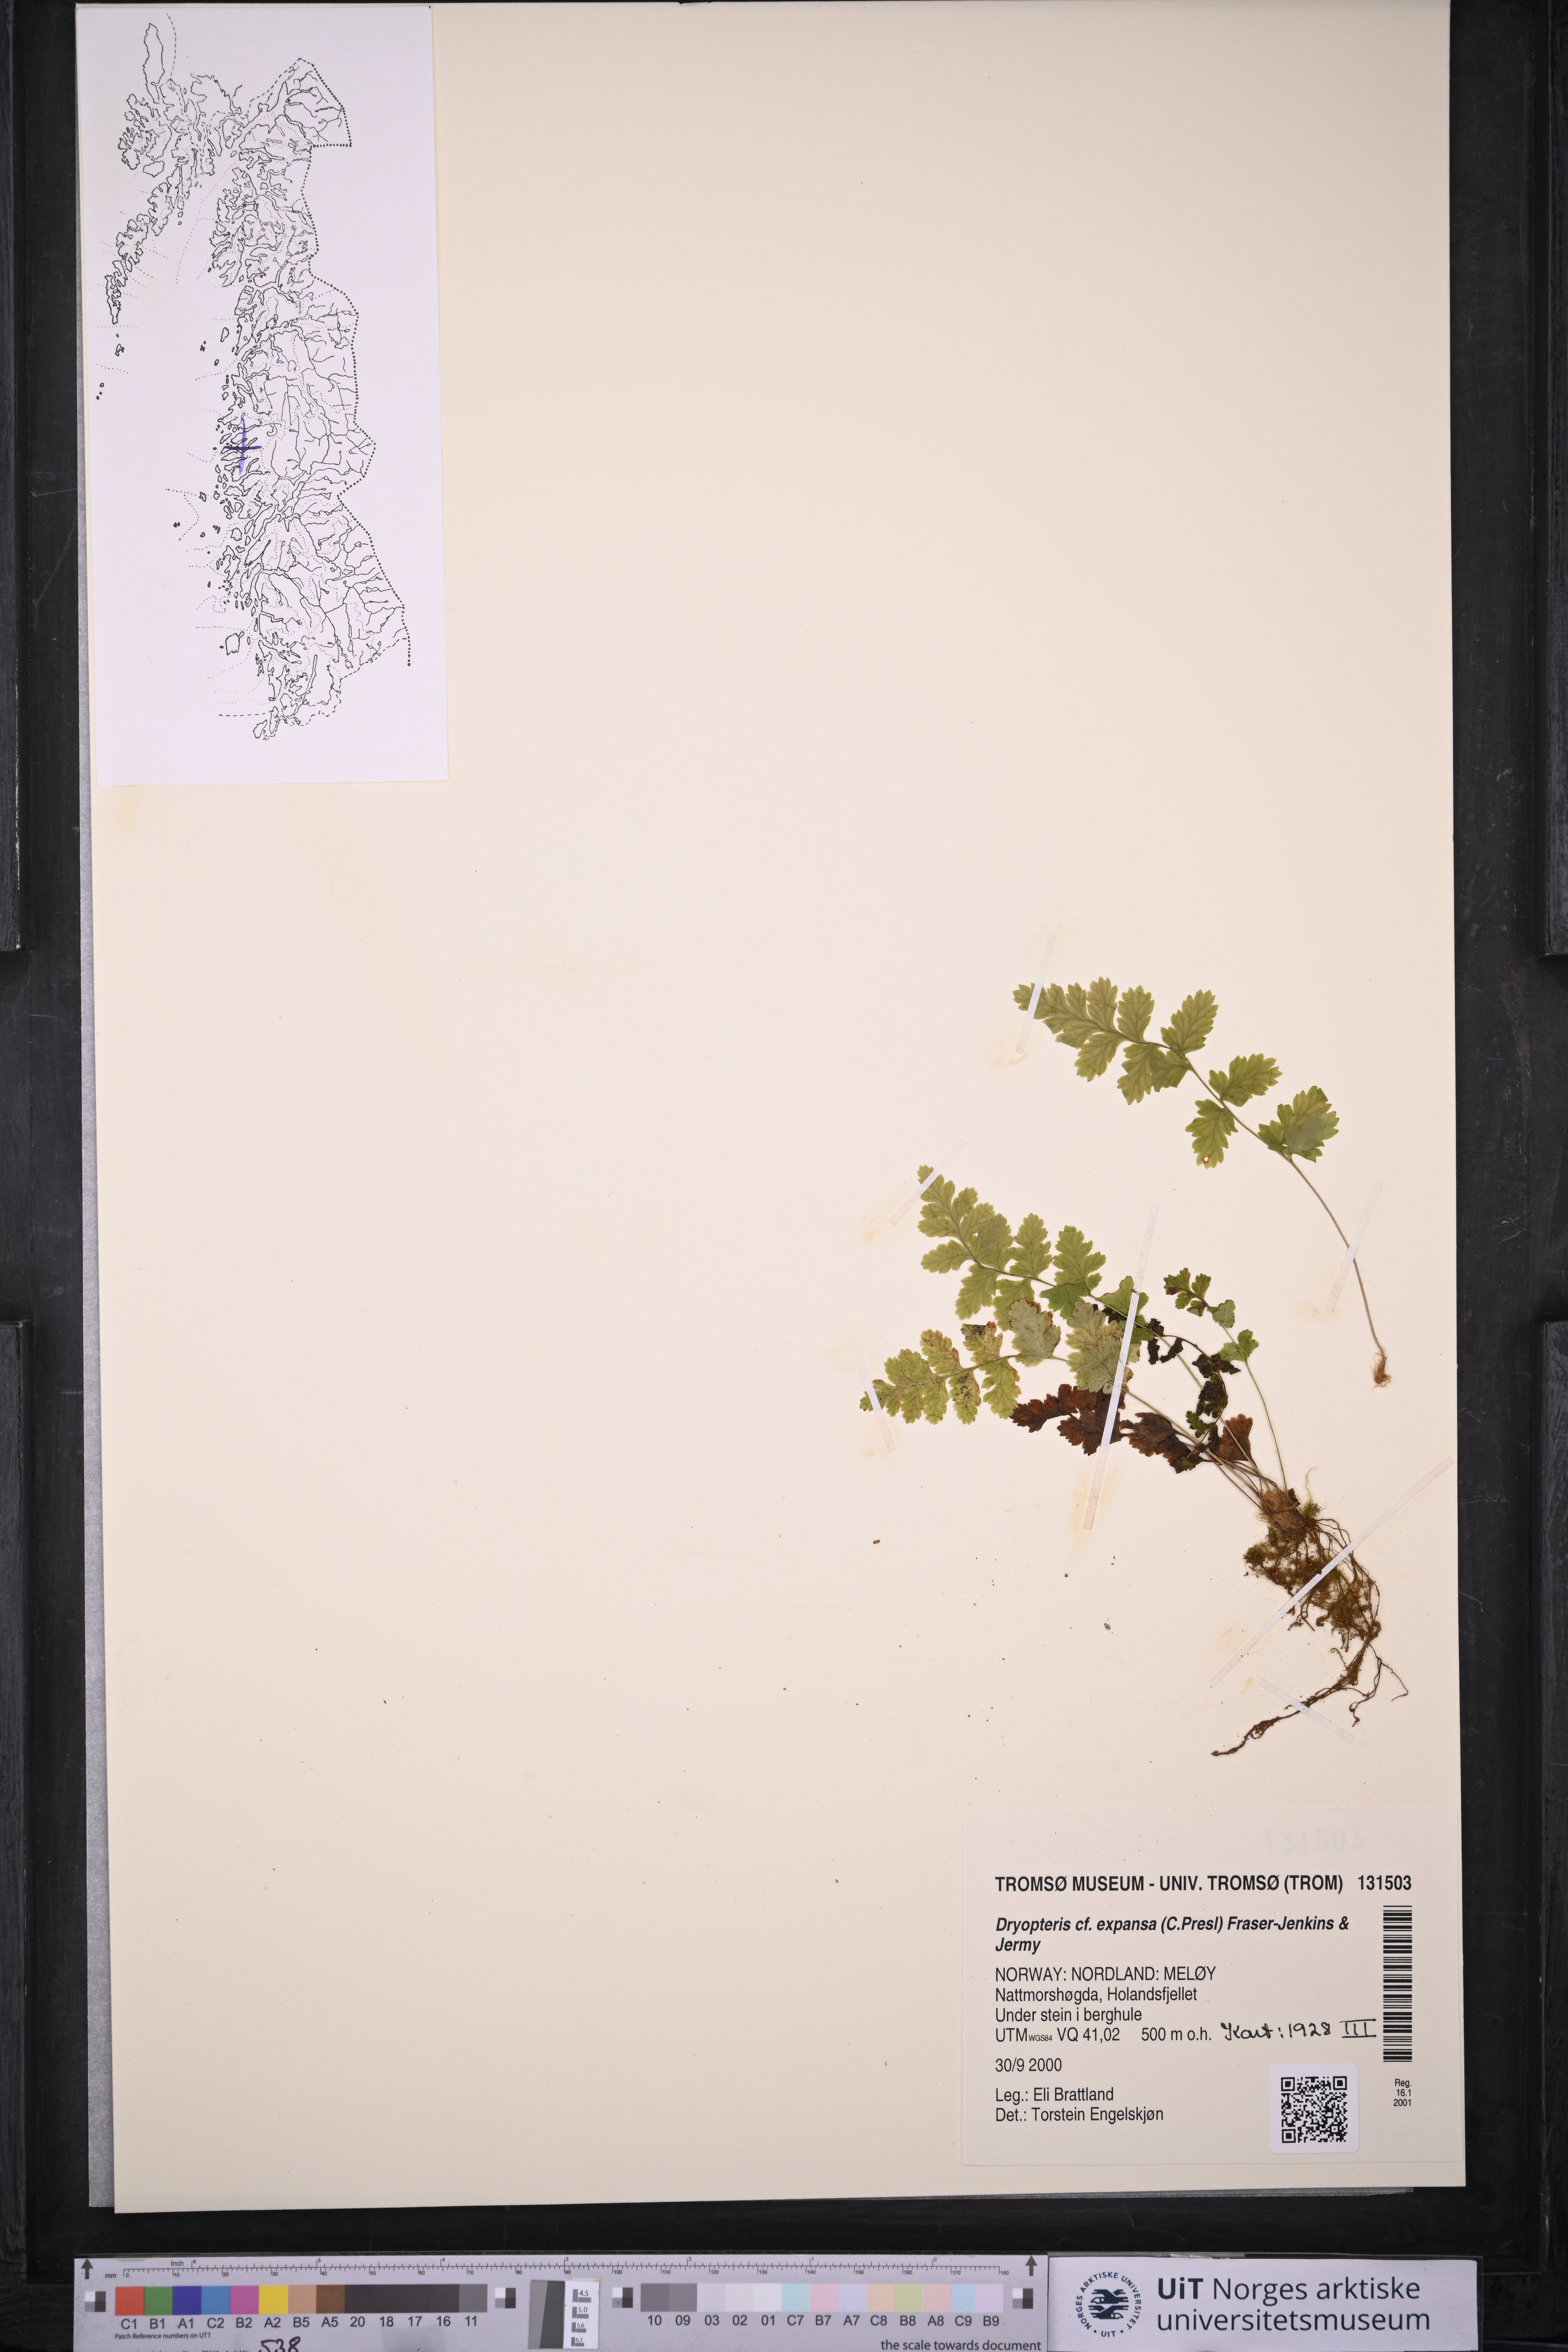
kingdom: Plantae
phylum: Tracheophyta
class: Polypodiopsida
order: Polypodiales
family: Dryopteridaceae
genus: Dryopteris
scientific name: Dryopteris expansa
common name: Northern buckler fern
